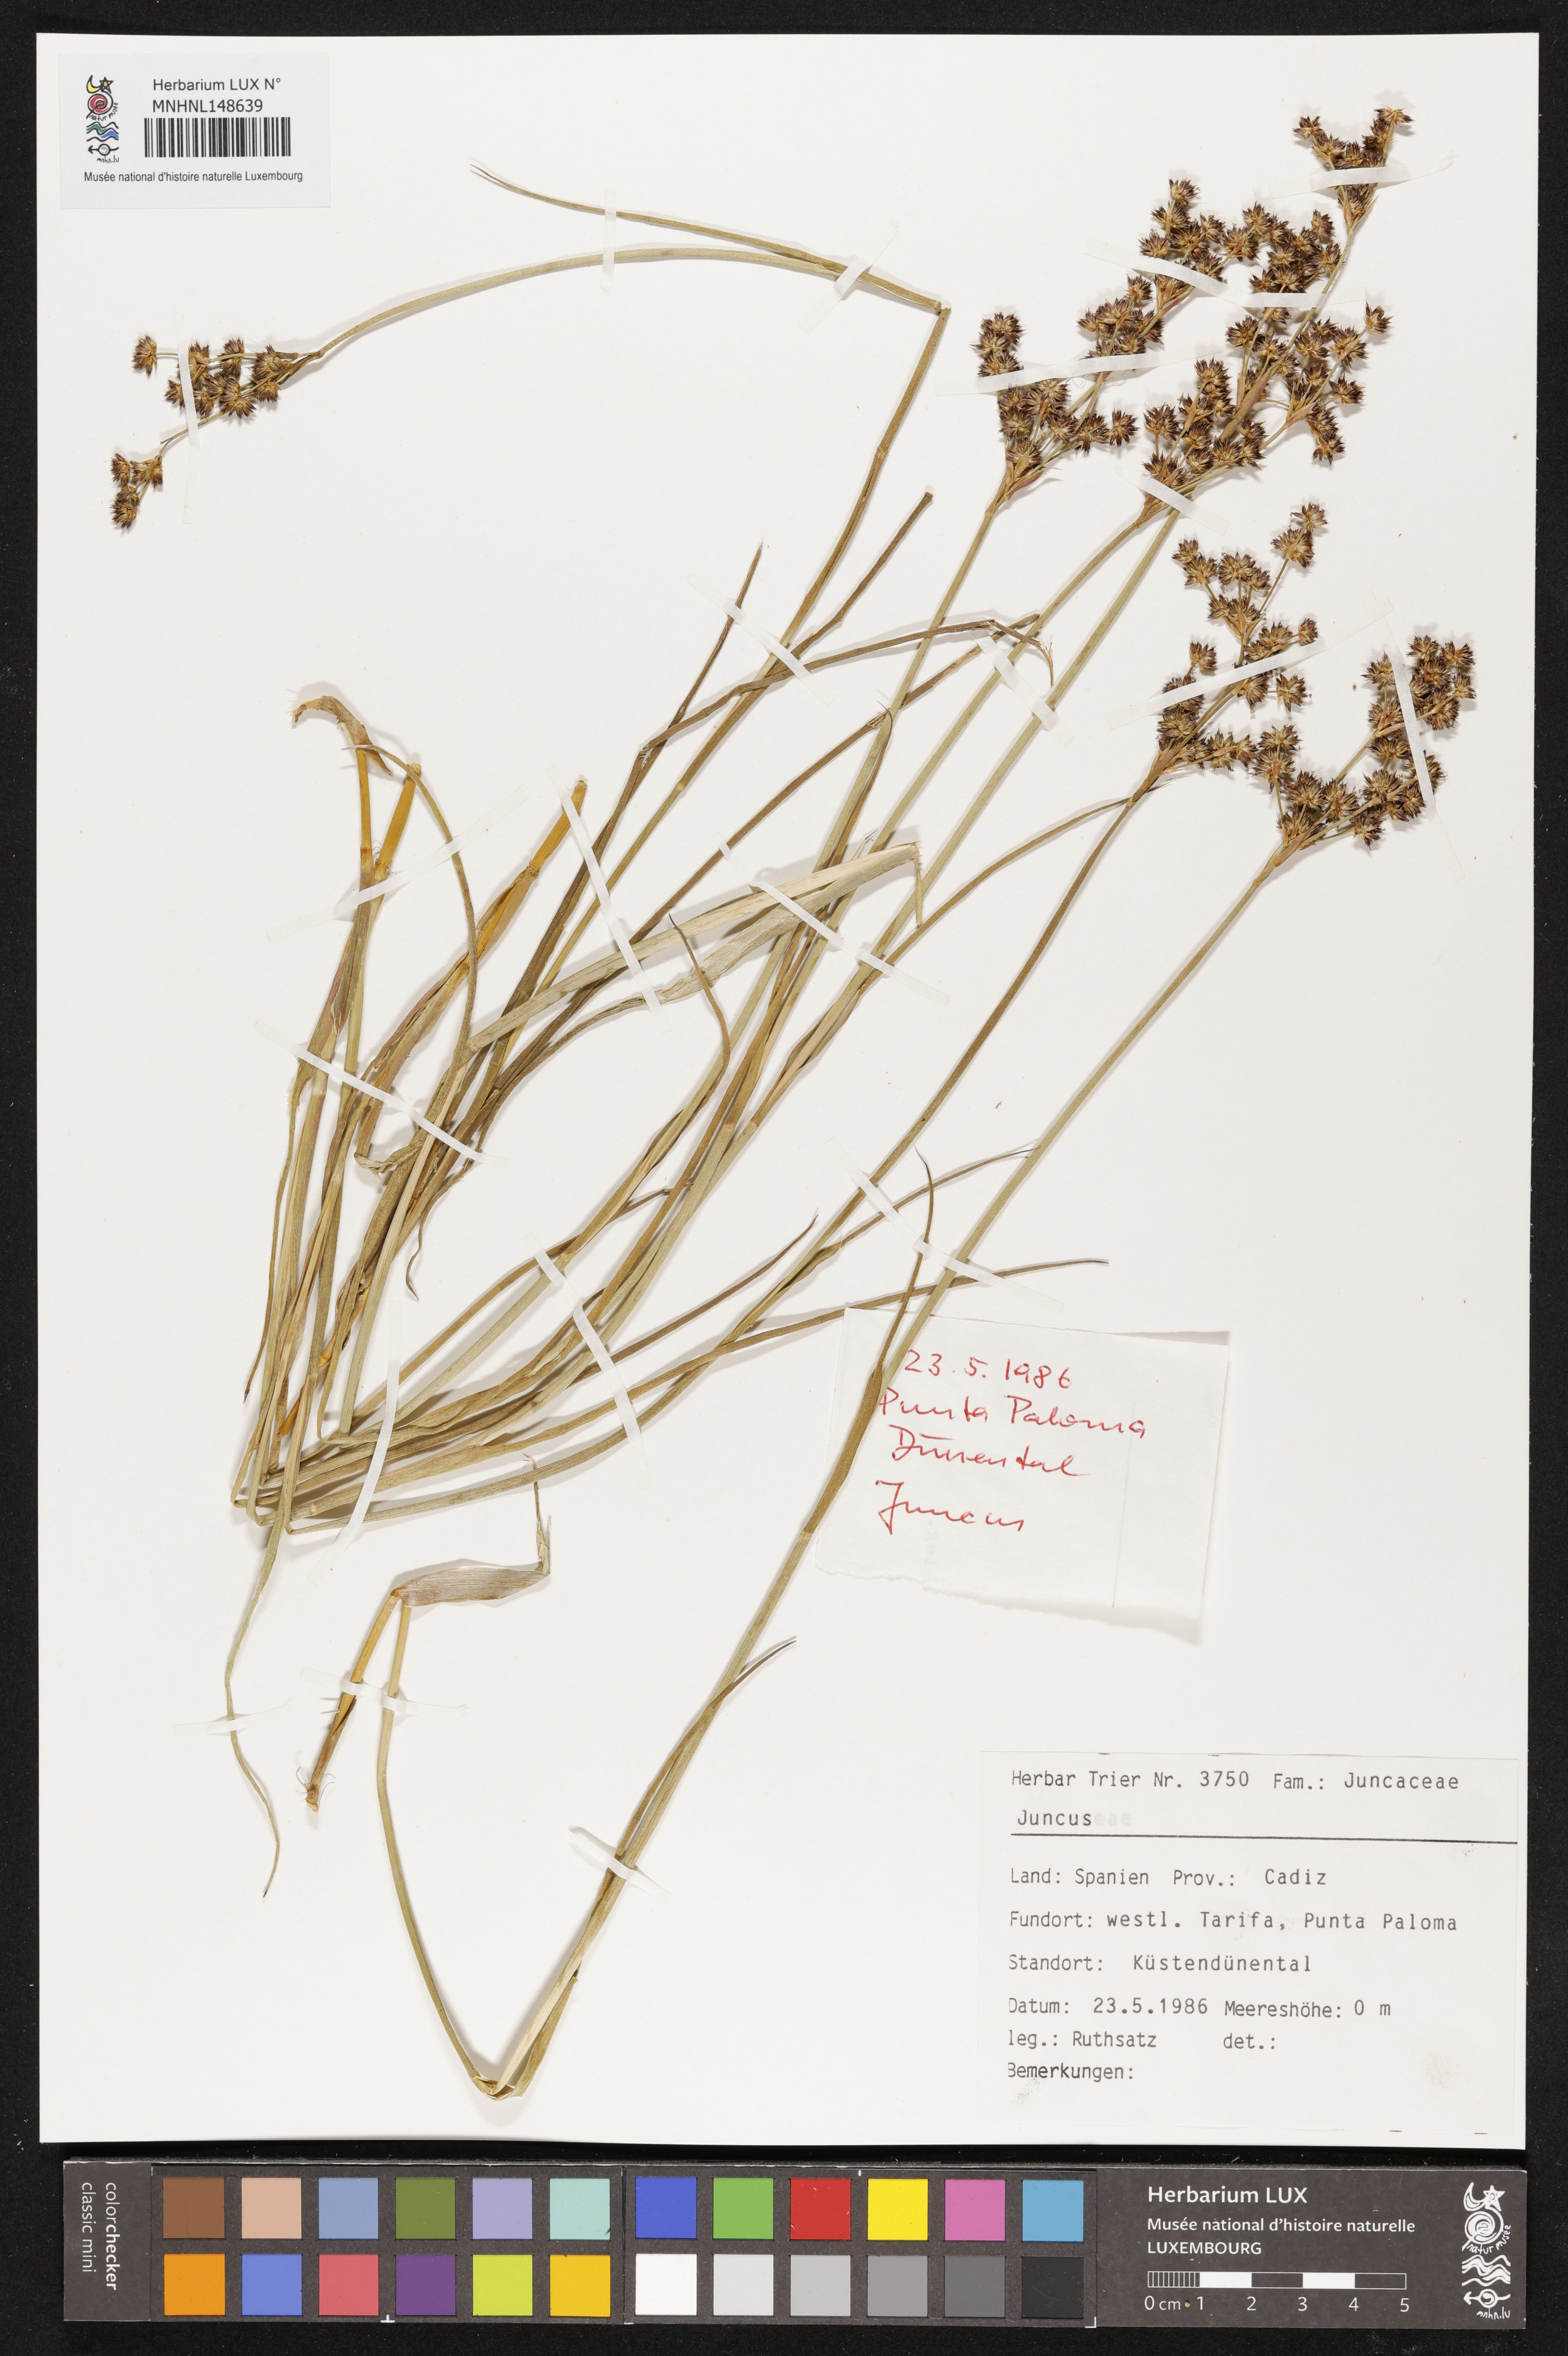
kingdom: Plantae
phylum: Tracheophyta
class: Liliopsida
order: Poales
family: Juncaceae
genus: Juncus
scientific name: Juncus
